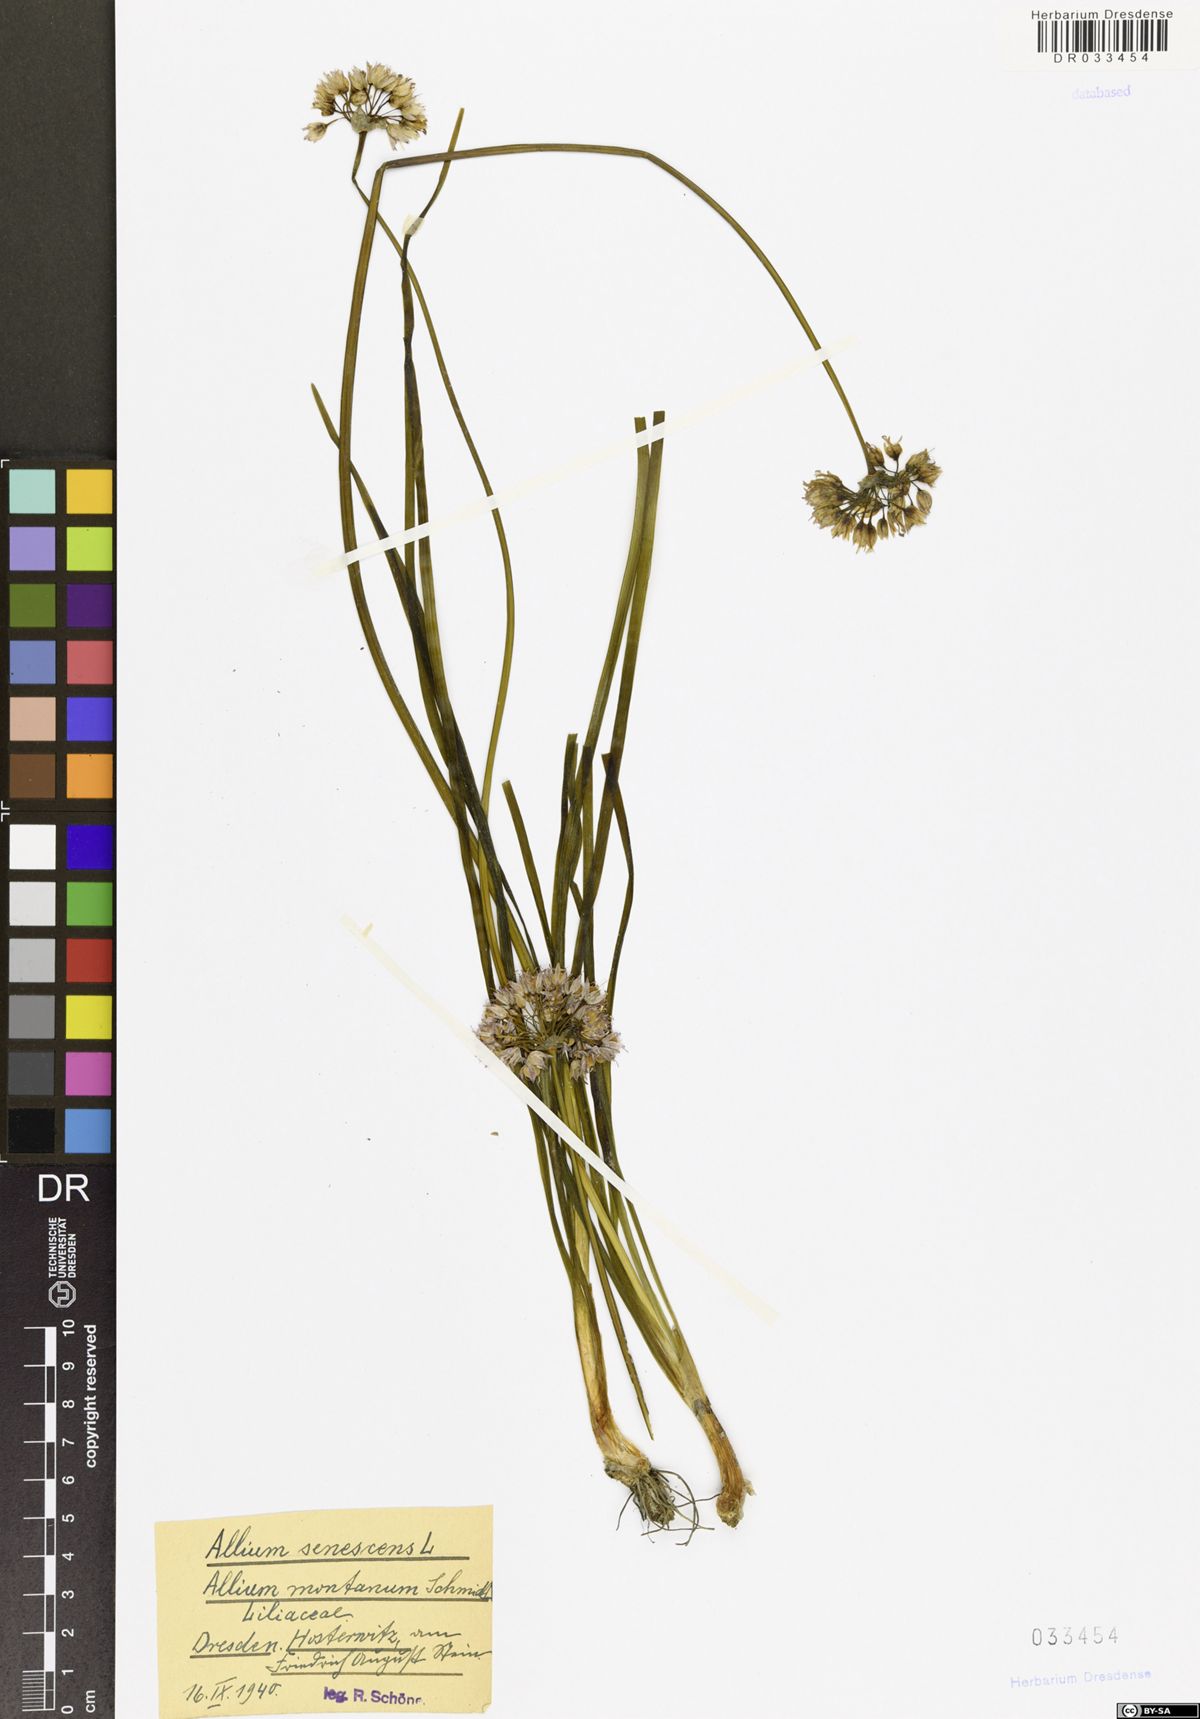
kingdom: Plantae
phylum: Tracheophyta
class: Liliopsida
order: Asparagales
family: Amaryllidaceae
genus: Allium
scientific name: Allium senescens
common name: German garlic
